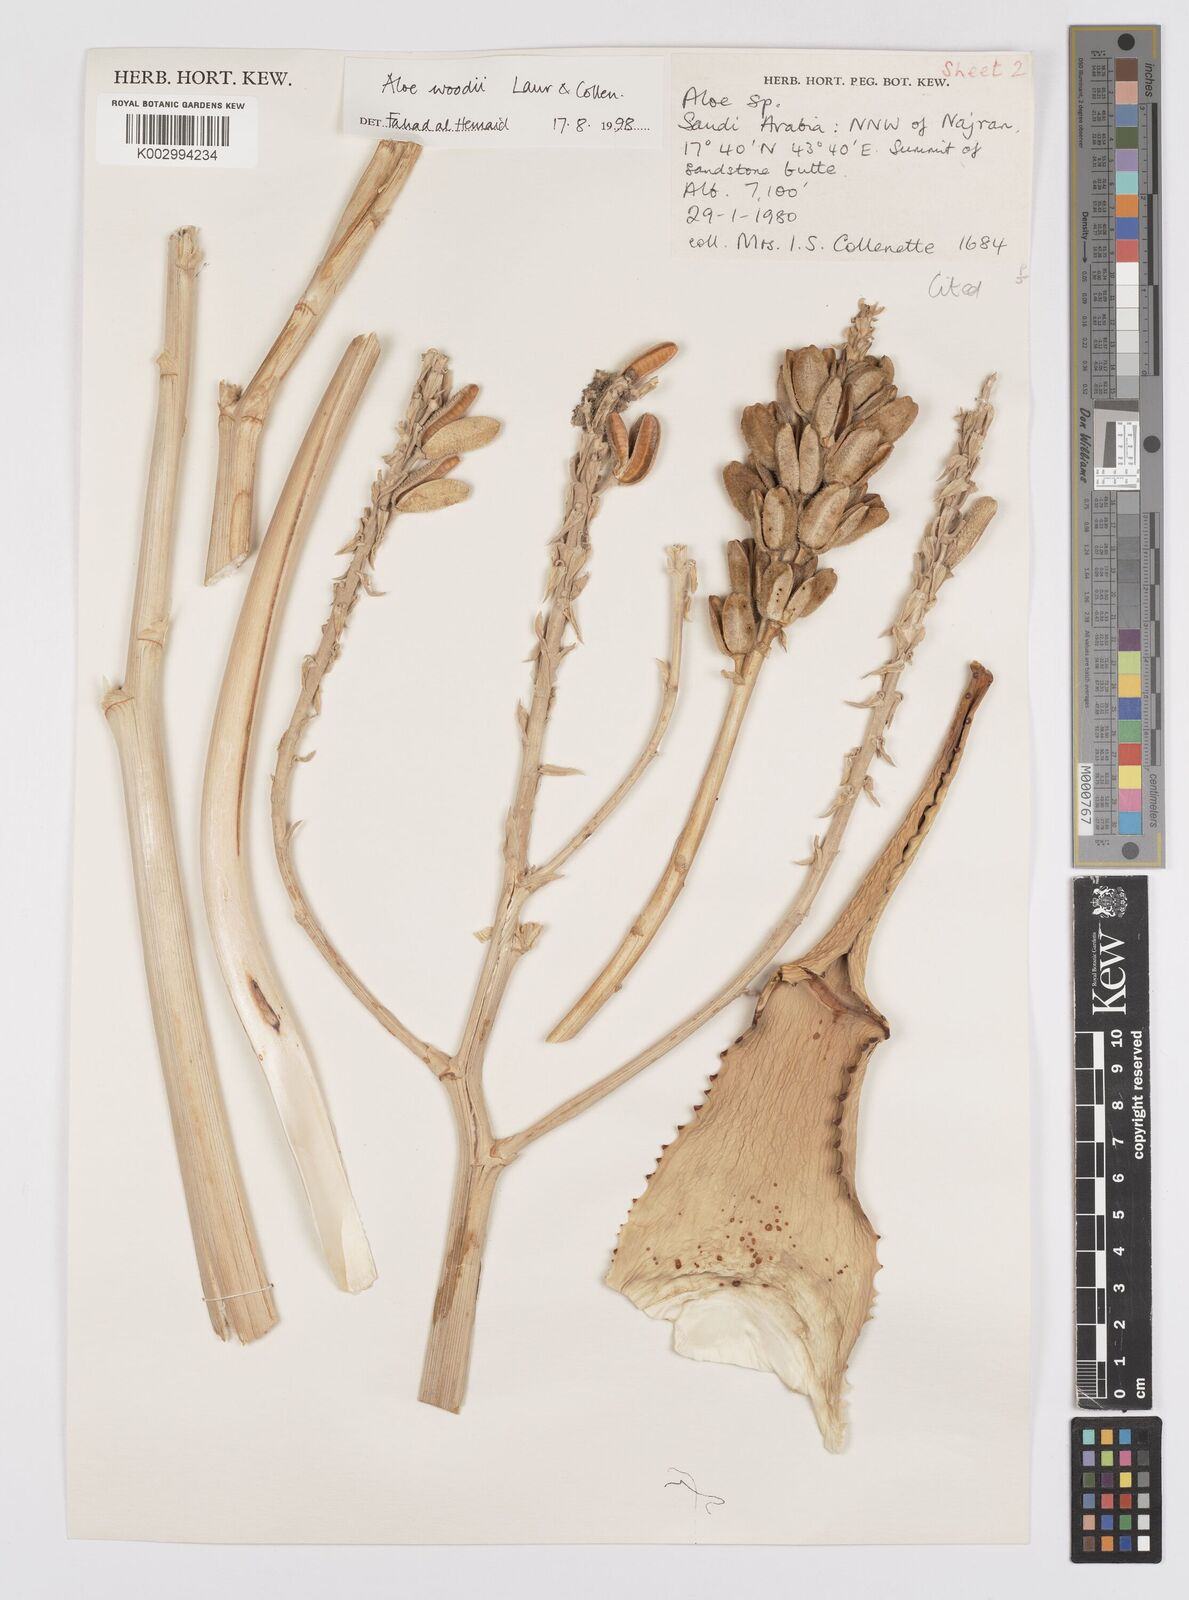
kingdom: Plantae
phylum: Tracheophyta
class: Liliopsida
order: Asparagales
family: Asphodelaceae
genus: Aloe
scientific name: Aloe woodii
